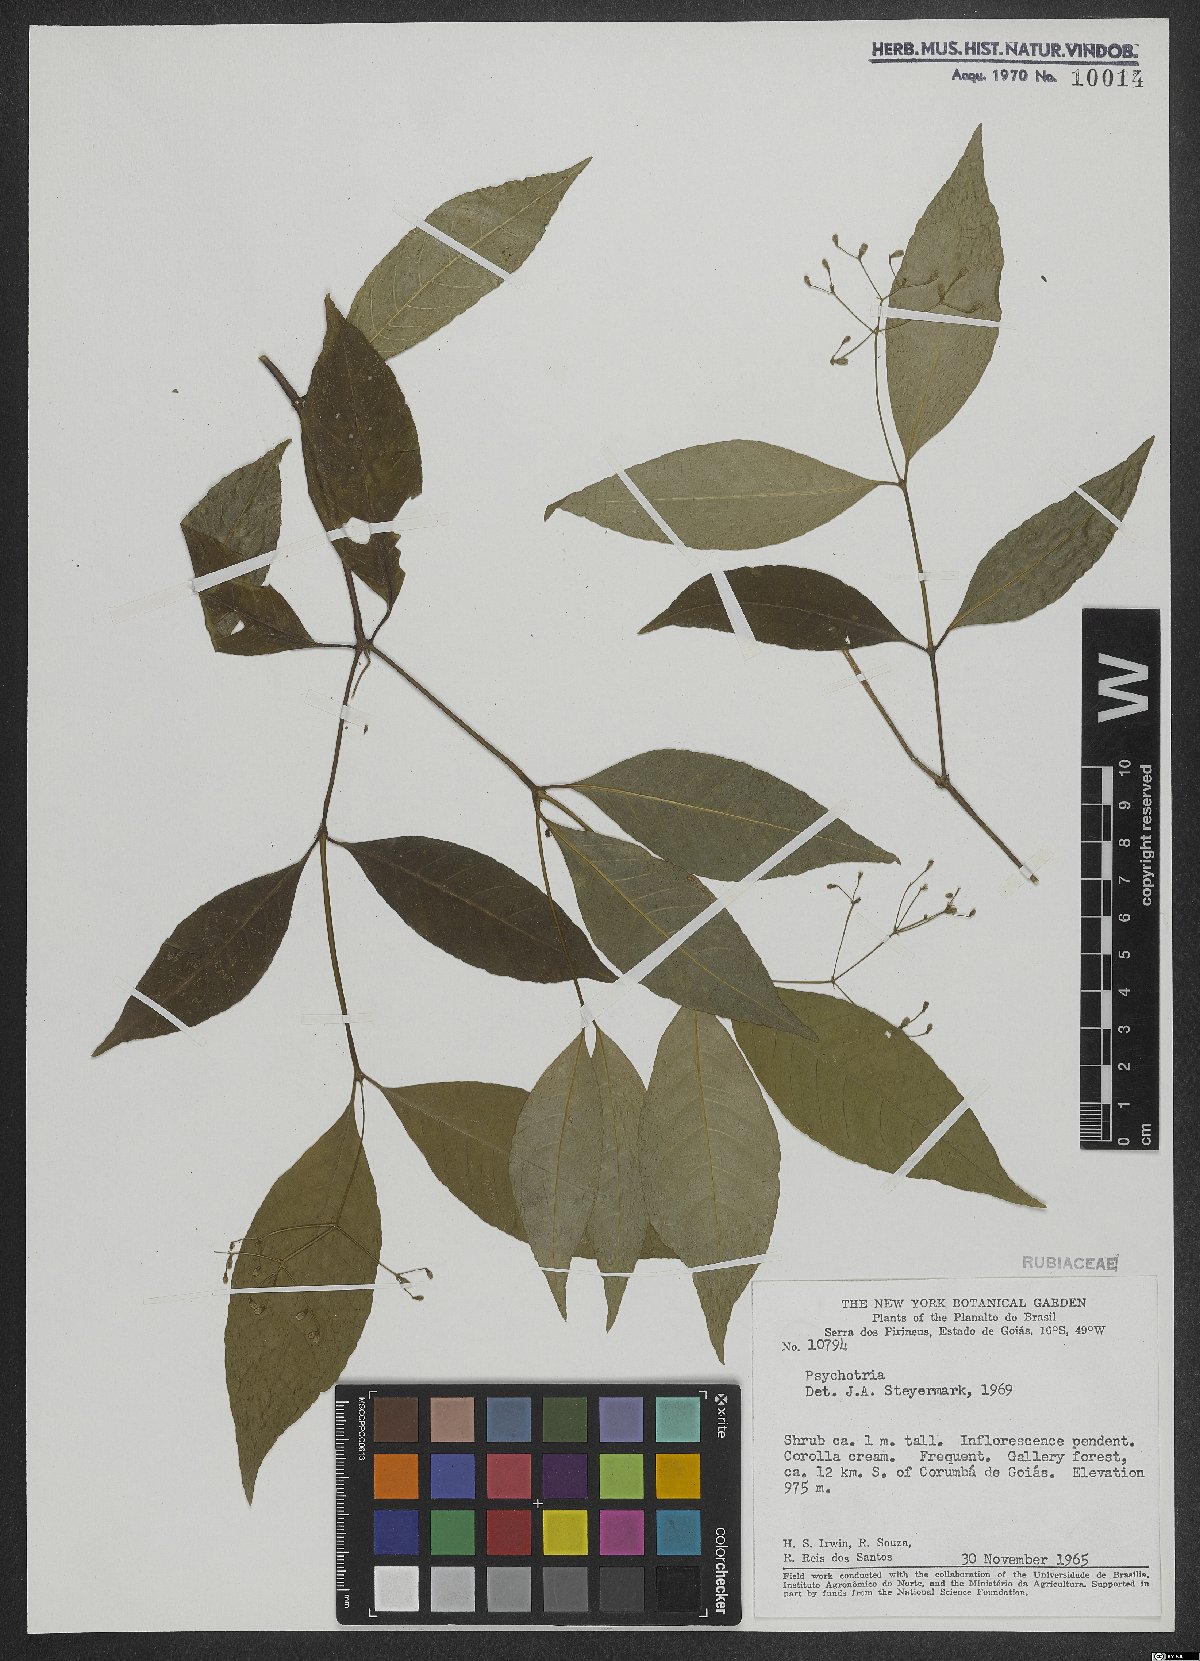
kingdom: Plantae
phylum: Tracheophyta
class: Magnoliopsida
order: Gentianales
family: Rubiaceae
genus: Psychotria
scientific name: Psychotria
